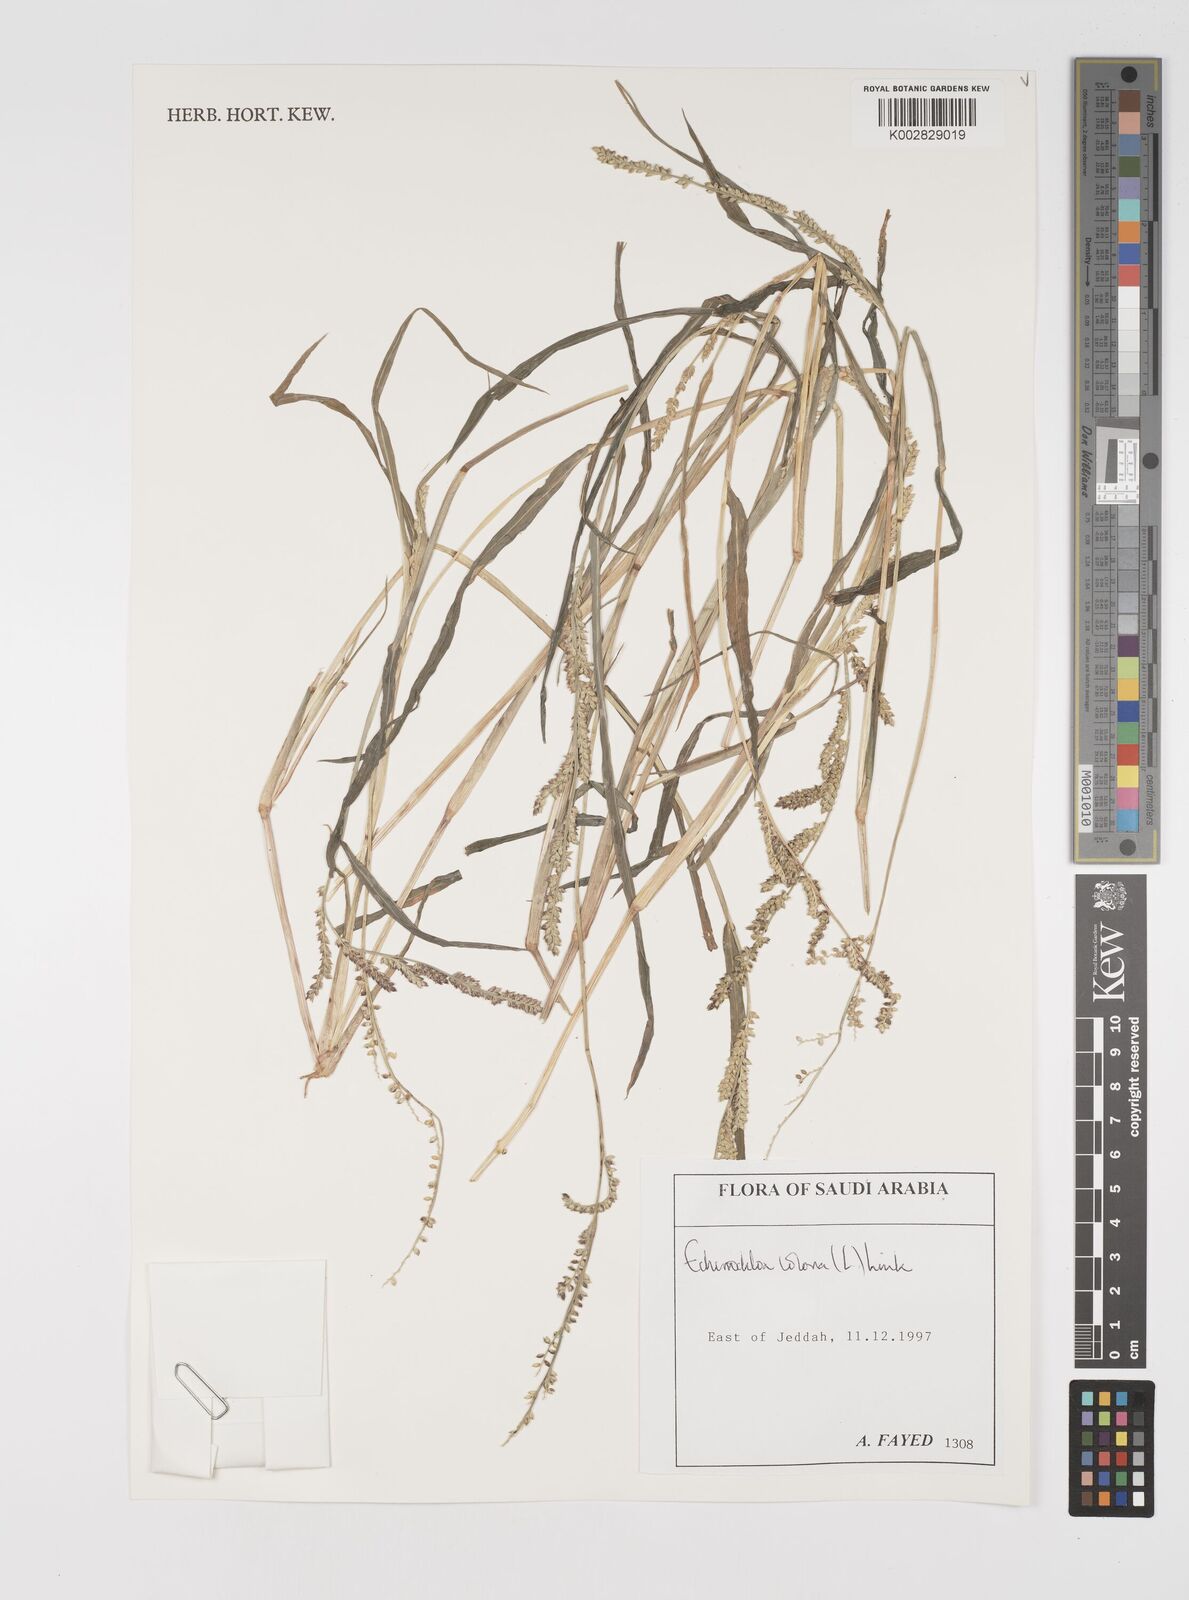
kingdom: Plantae
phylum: Tracheophyta
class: Liliopsida
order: Poales
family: Poaceae
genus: Echinochloa
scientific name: Echinochloa colonum
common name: Jungle rice
